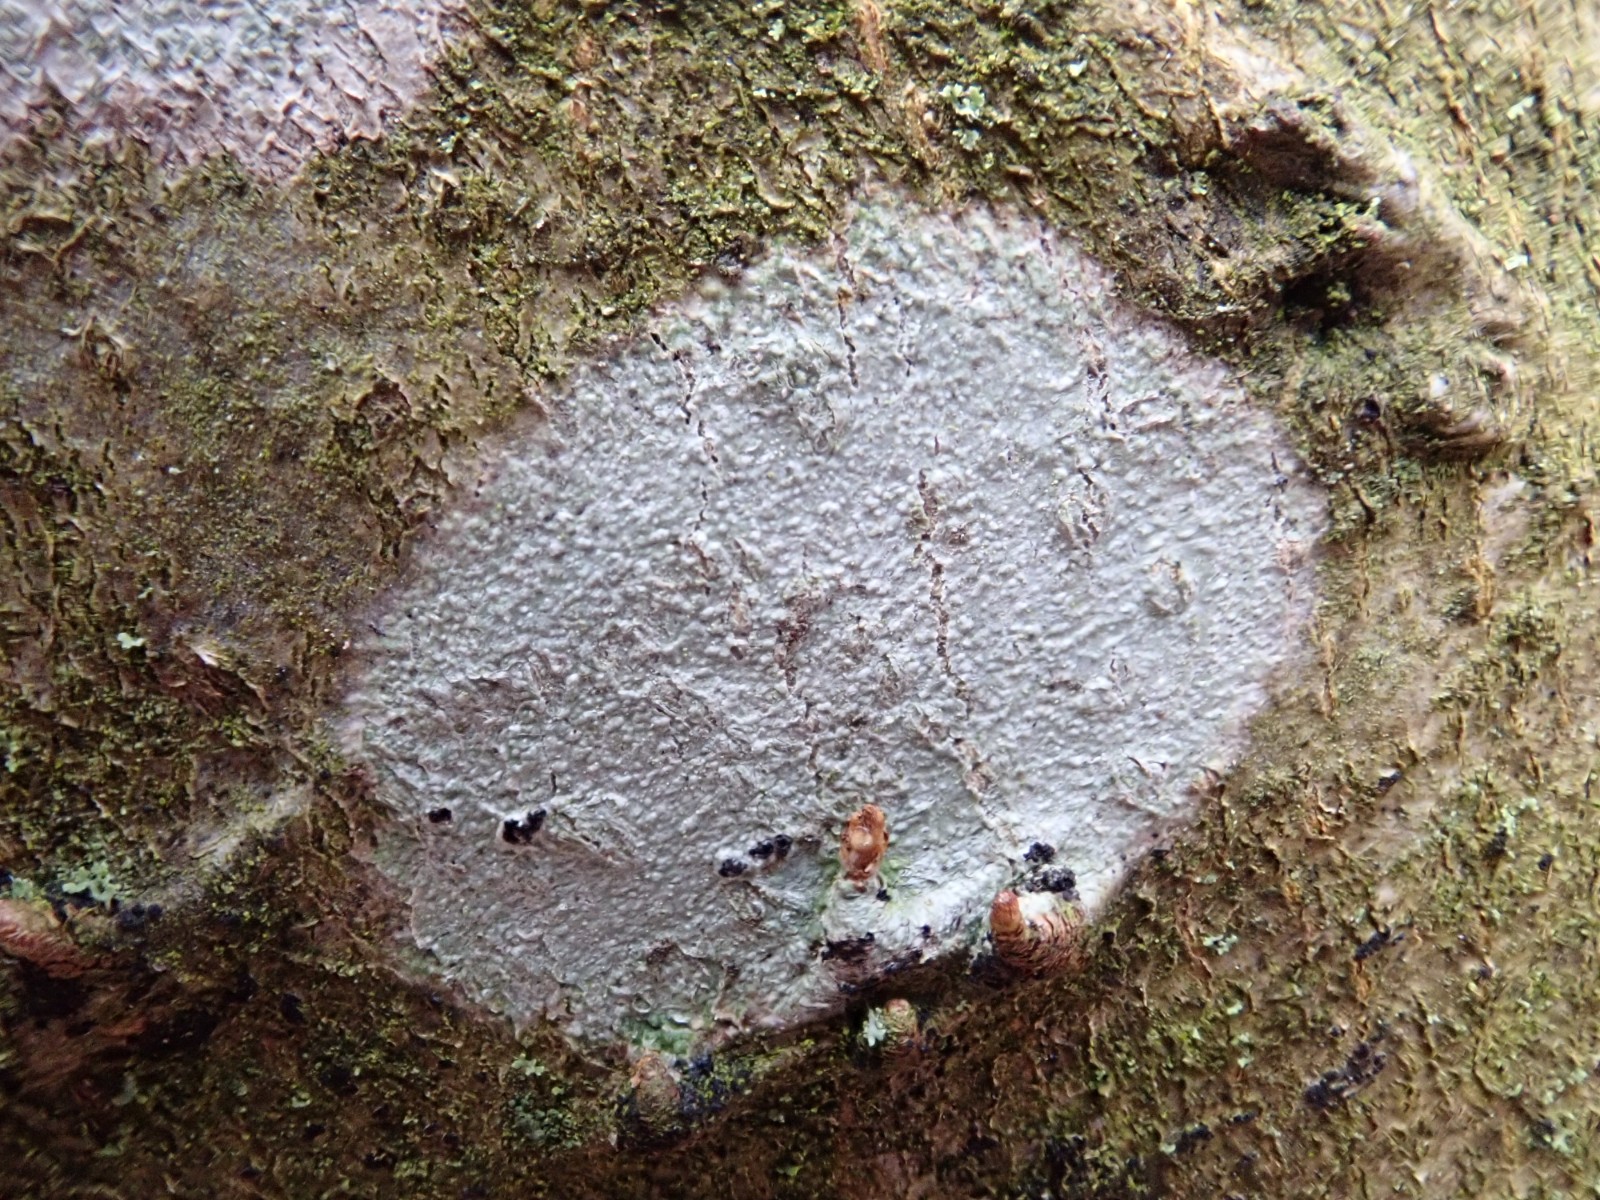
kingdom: Fungi
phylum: Ascomycota
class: Lecanoromycetes
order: Ostropales
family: Phlyctidaceae
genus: Phlyctis
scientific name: Phlyctis argena
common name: almindelig sølvlav
